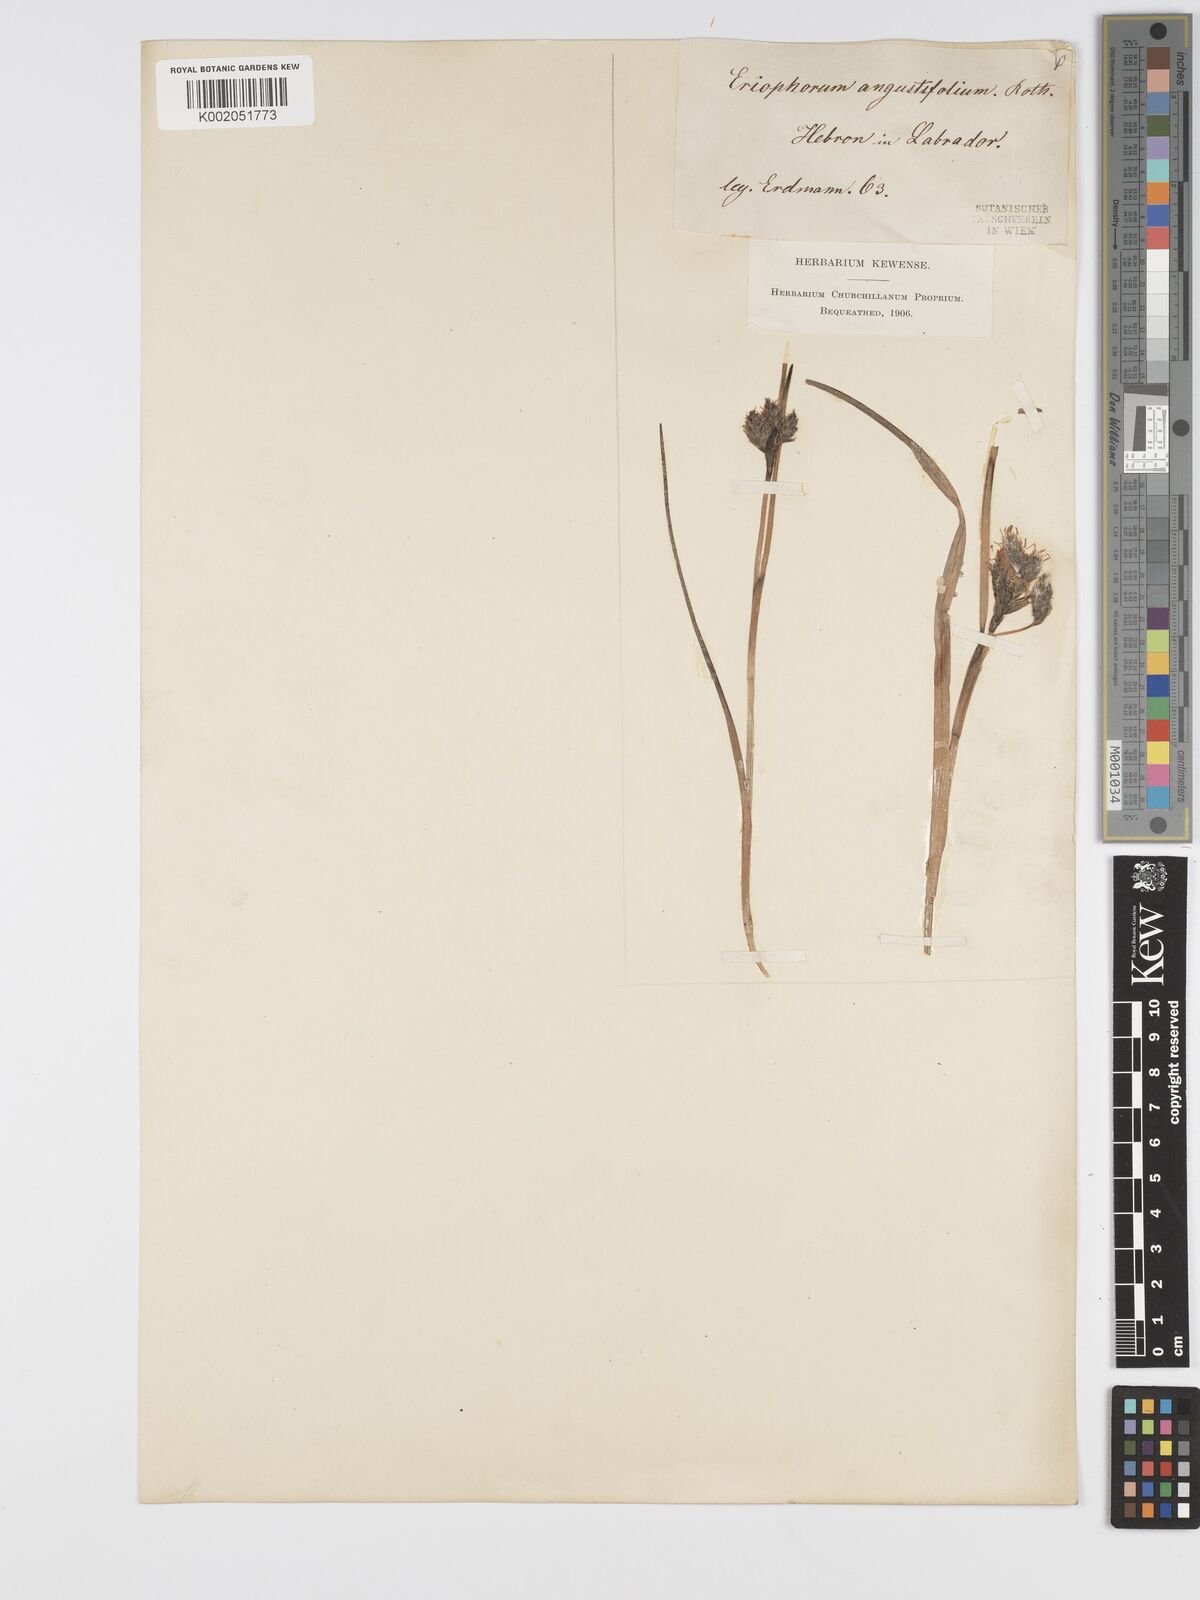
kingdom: Plantae
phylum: Tracheophyta
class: Liliopsida
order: Poales
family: Cyperaceae
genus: Eriophorum
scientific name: Eriophorum angustifolium
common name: Common cottongrass
